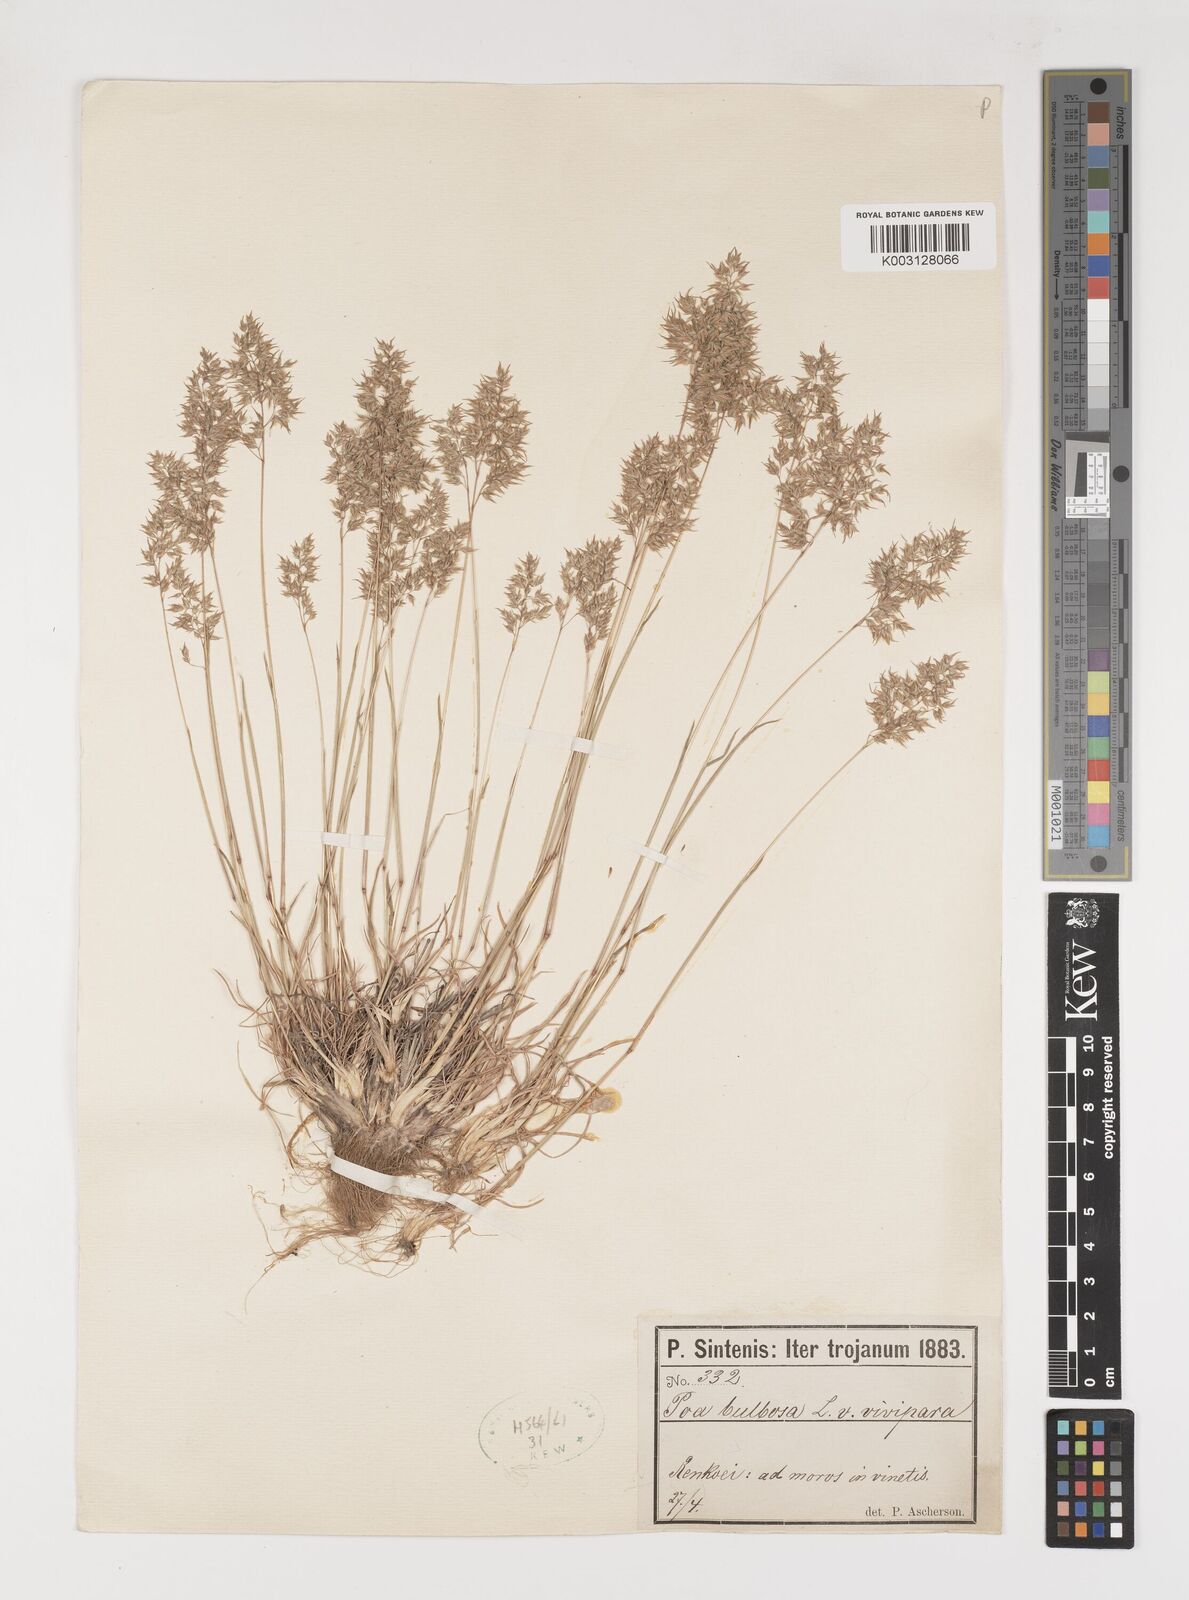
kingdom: Plantae
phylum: Tracheophyta
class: Liliopsida
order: Poales
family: Poaceae
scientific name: Poaceae
